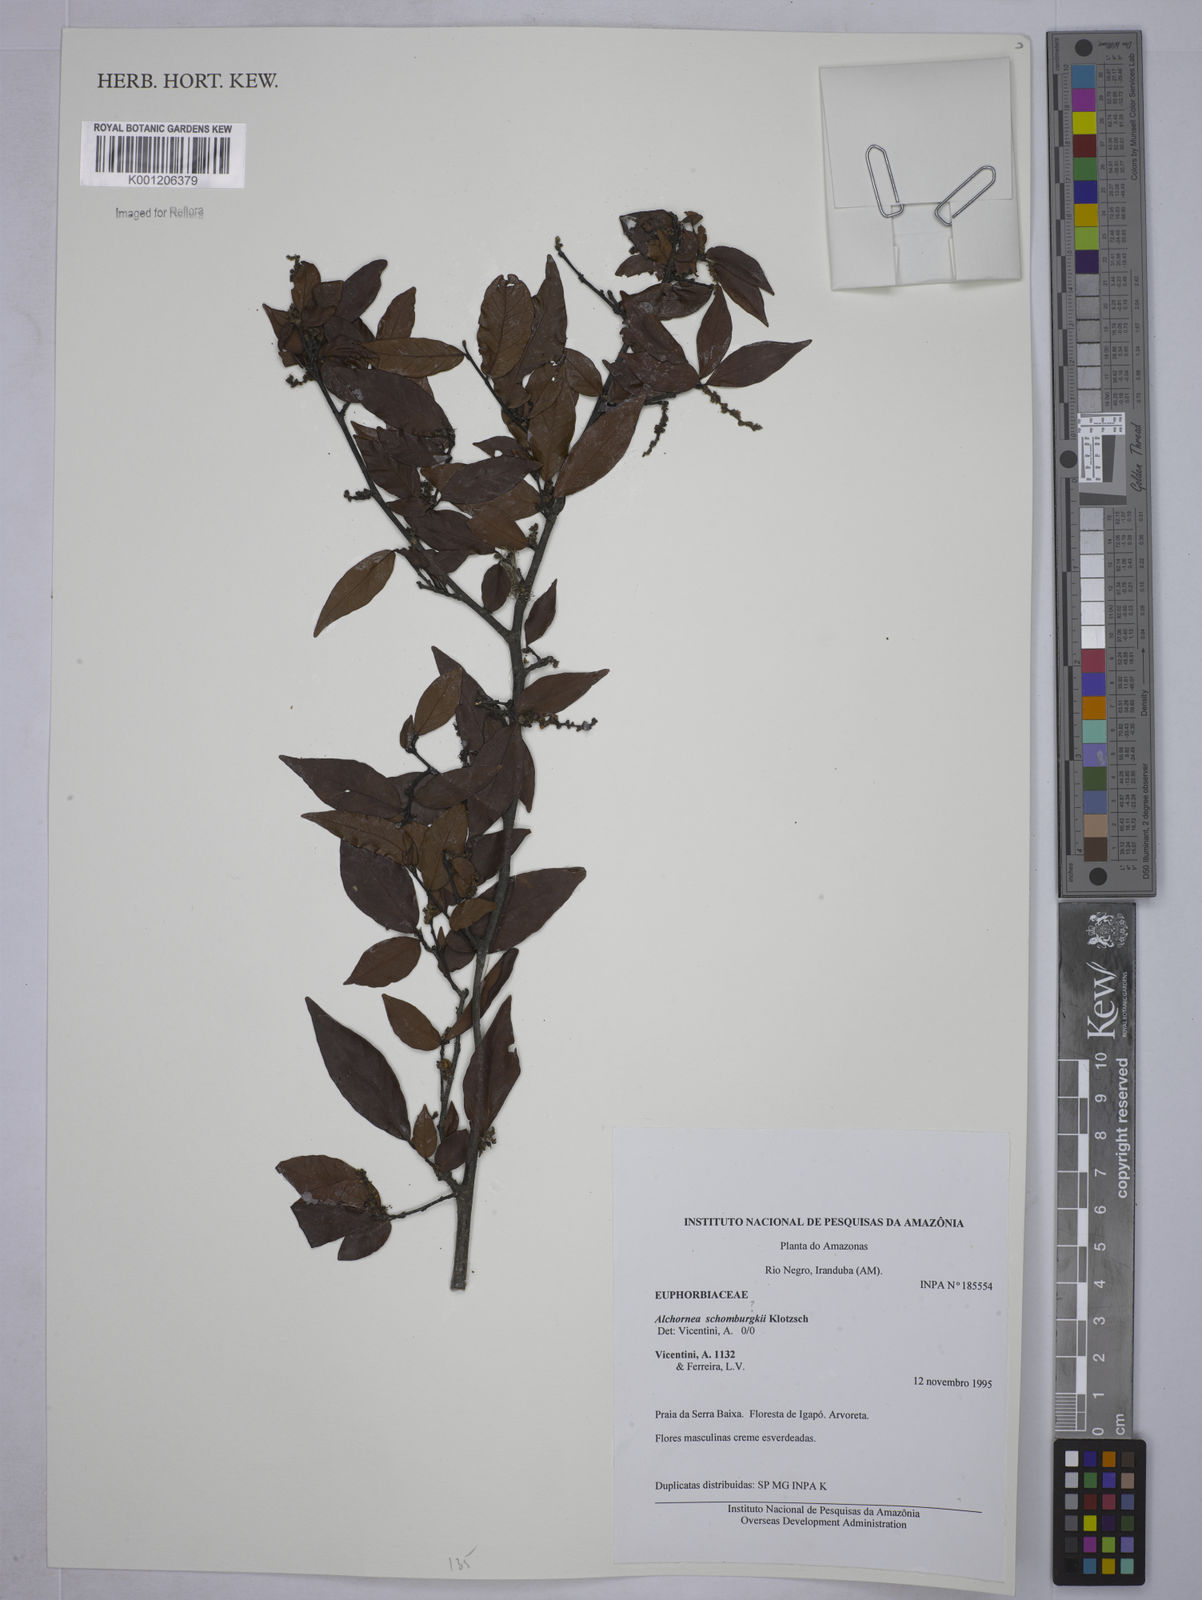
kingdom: Plantae
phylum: Tracheophyta
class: Magnoliopsida
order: Malpighiales
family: Euphorbiaceae
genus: Alchornea
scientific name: Alchornea
